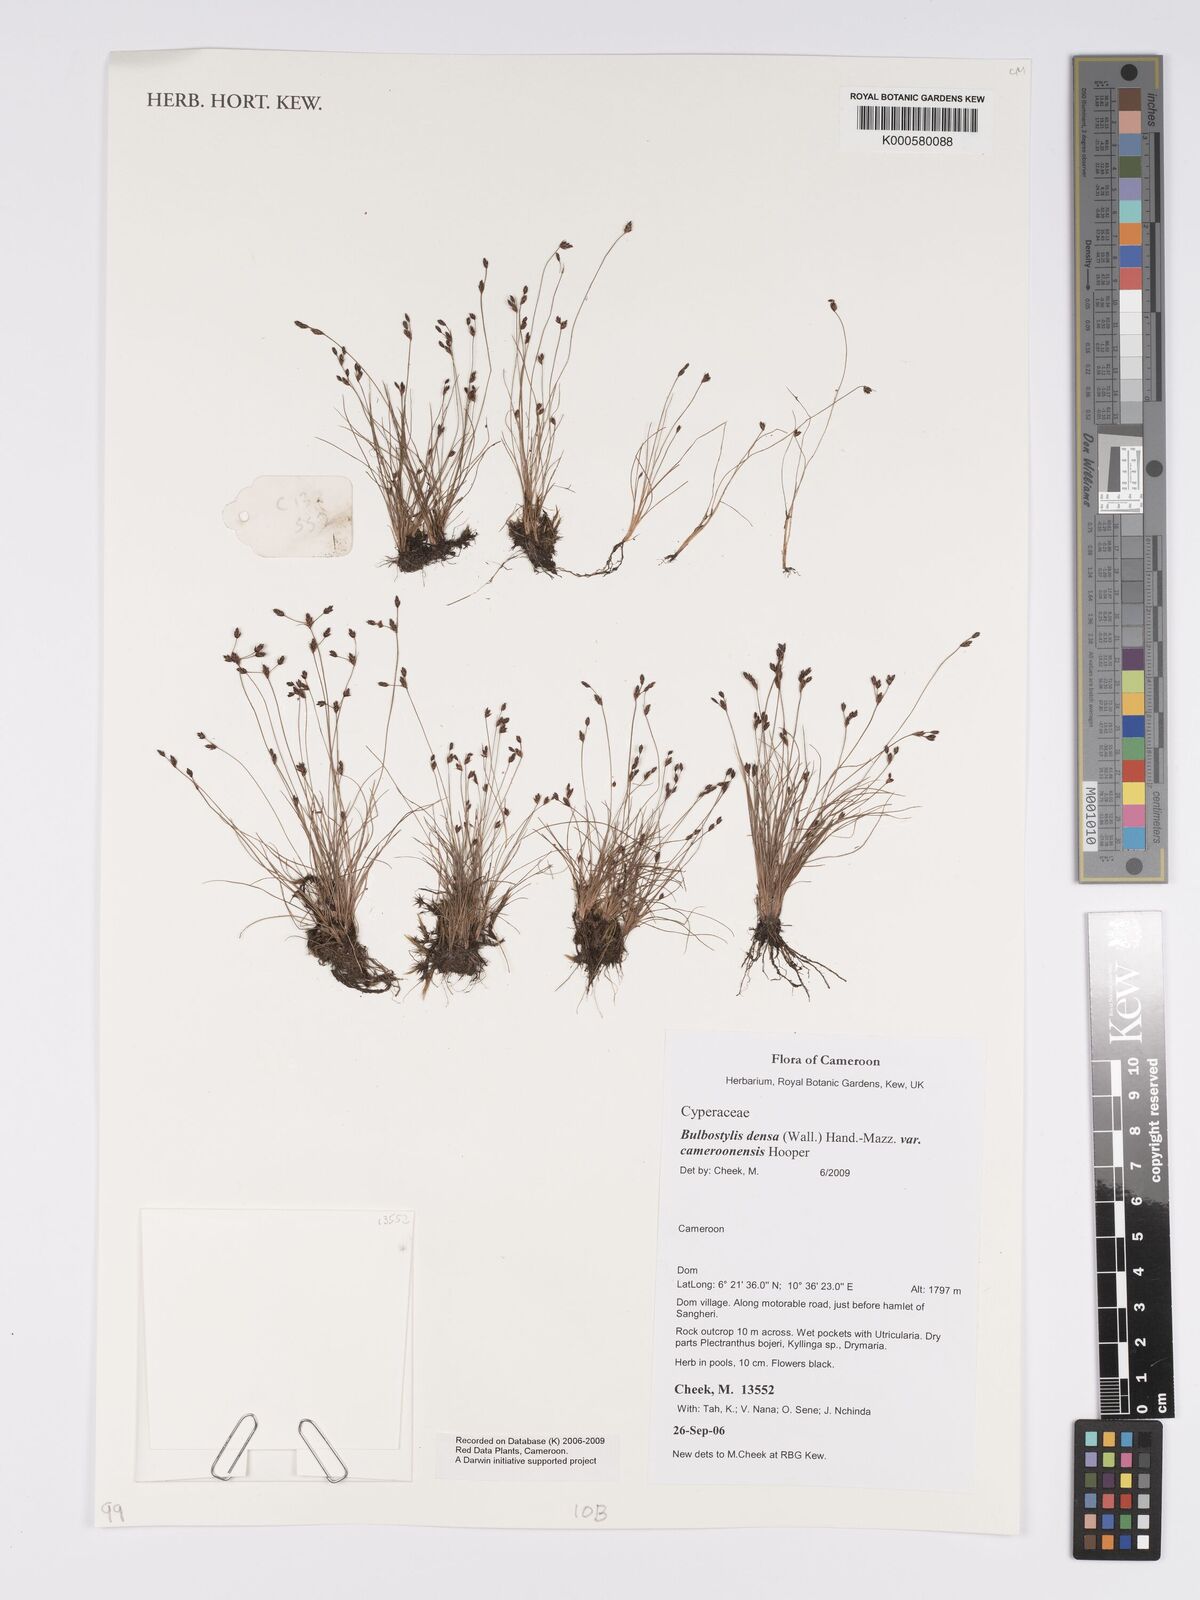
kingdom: Plantae
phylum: Tracheophyta
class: Liliopsida
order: Poales
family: Cyperaceae
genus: Bulbostylis
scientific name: Bulbostylis densa
